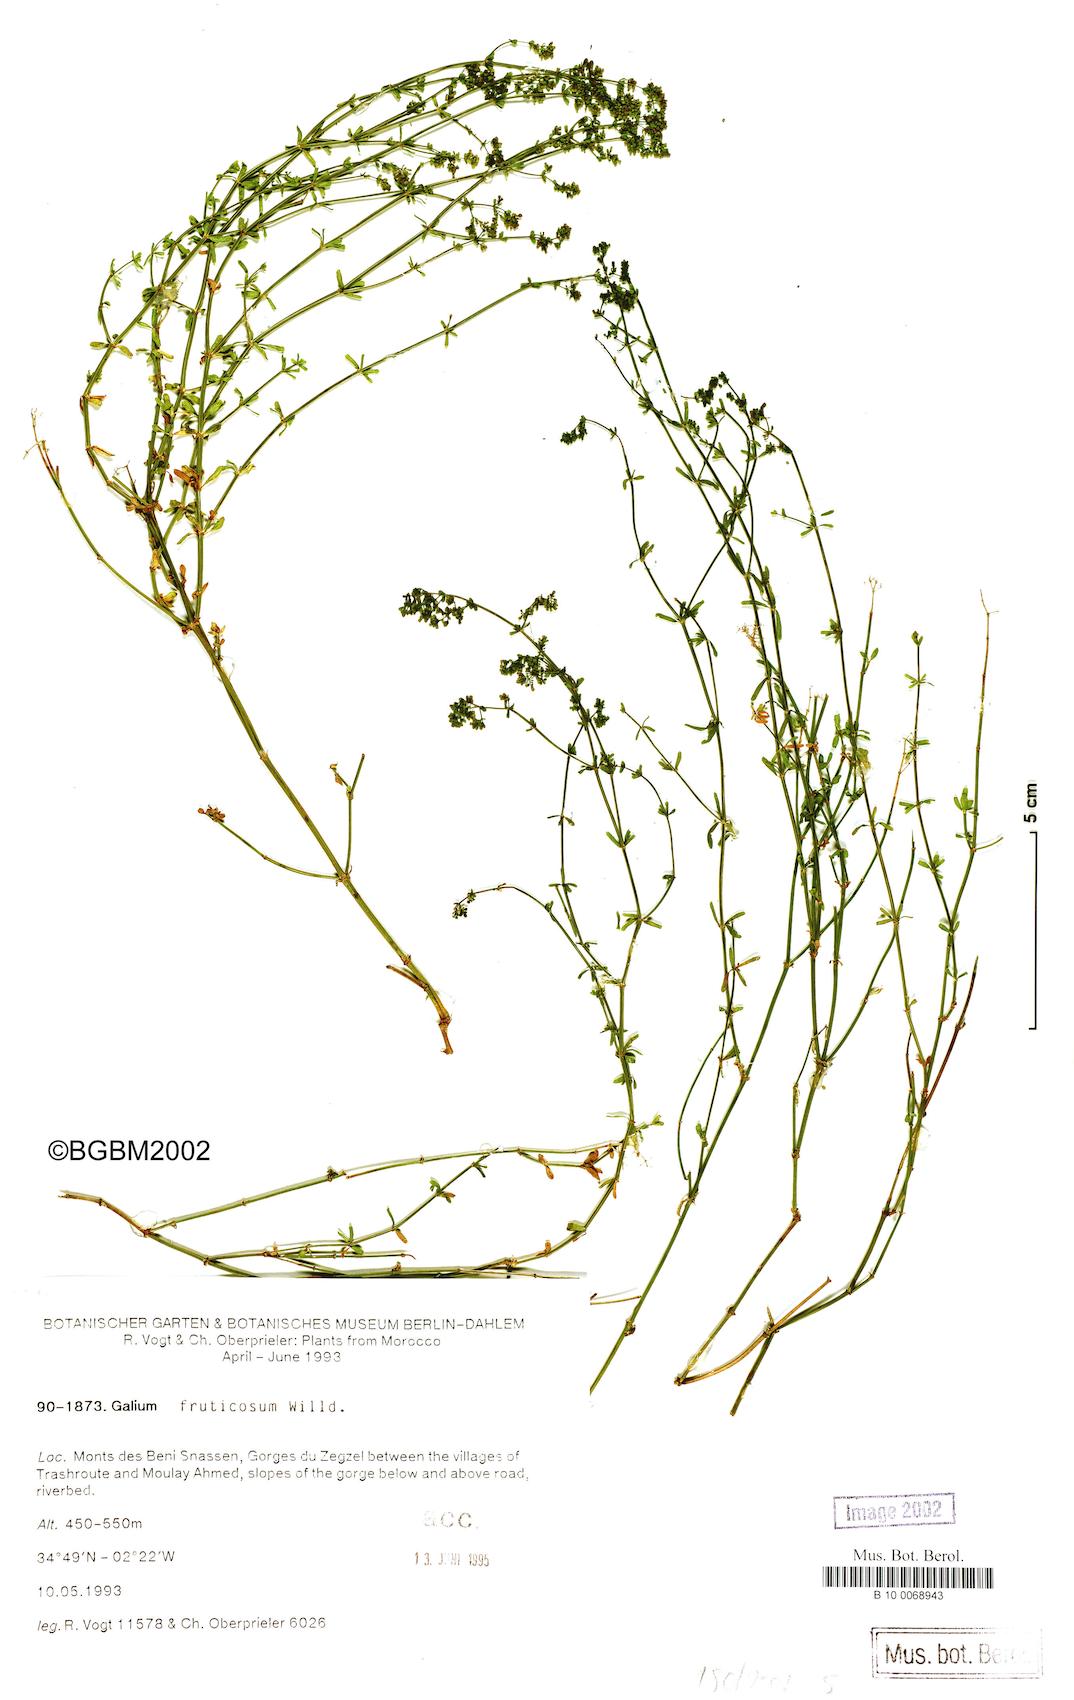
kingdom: Plantae
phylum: Tracheophyta
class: Magnoliopsida
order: Gentianales
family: Rubiaceae
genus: Galium
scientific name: Galium fruticosum
